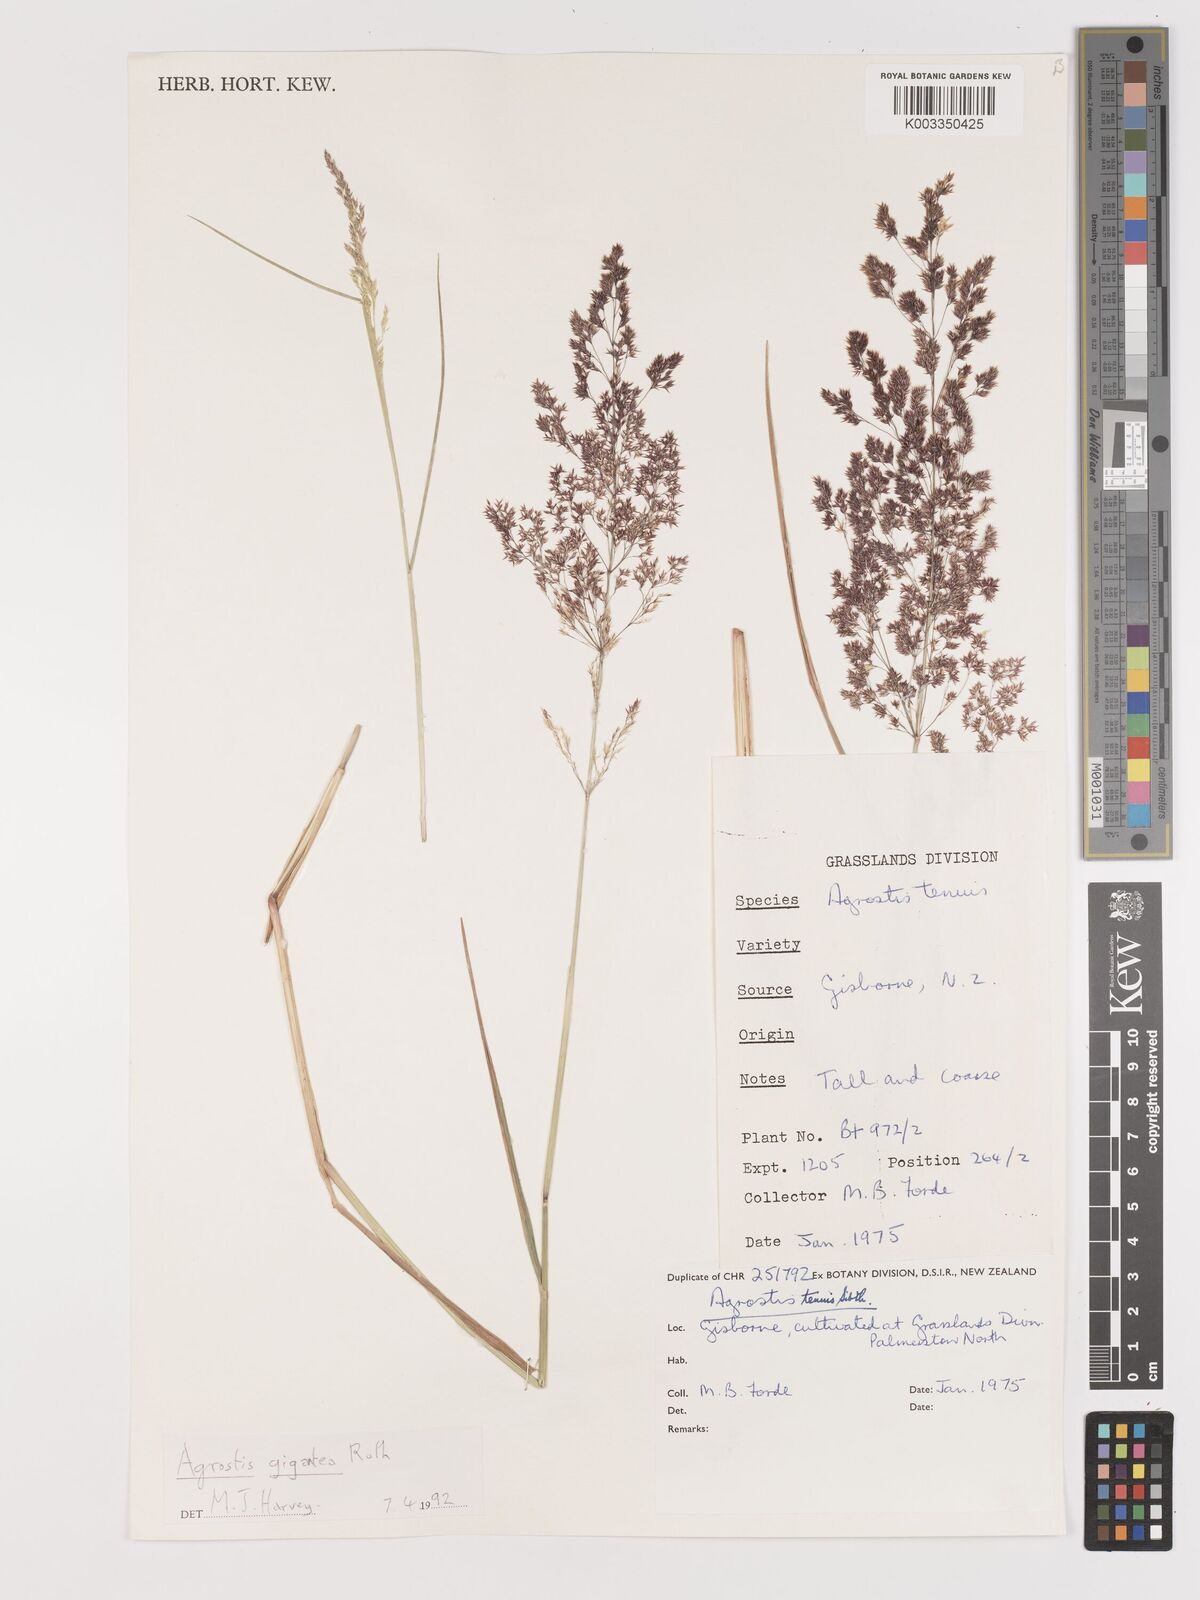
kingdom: Plantae
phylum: Tracheophyta
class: Liliopsida
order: Poales
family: Poaceae
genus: Agrostis
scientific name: Agrostis capillaris
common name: Colonial bentgrass
